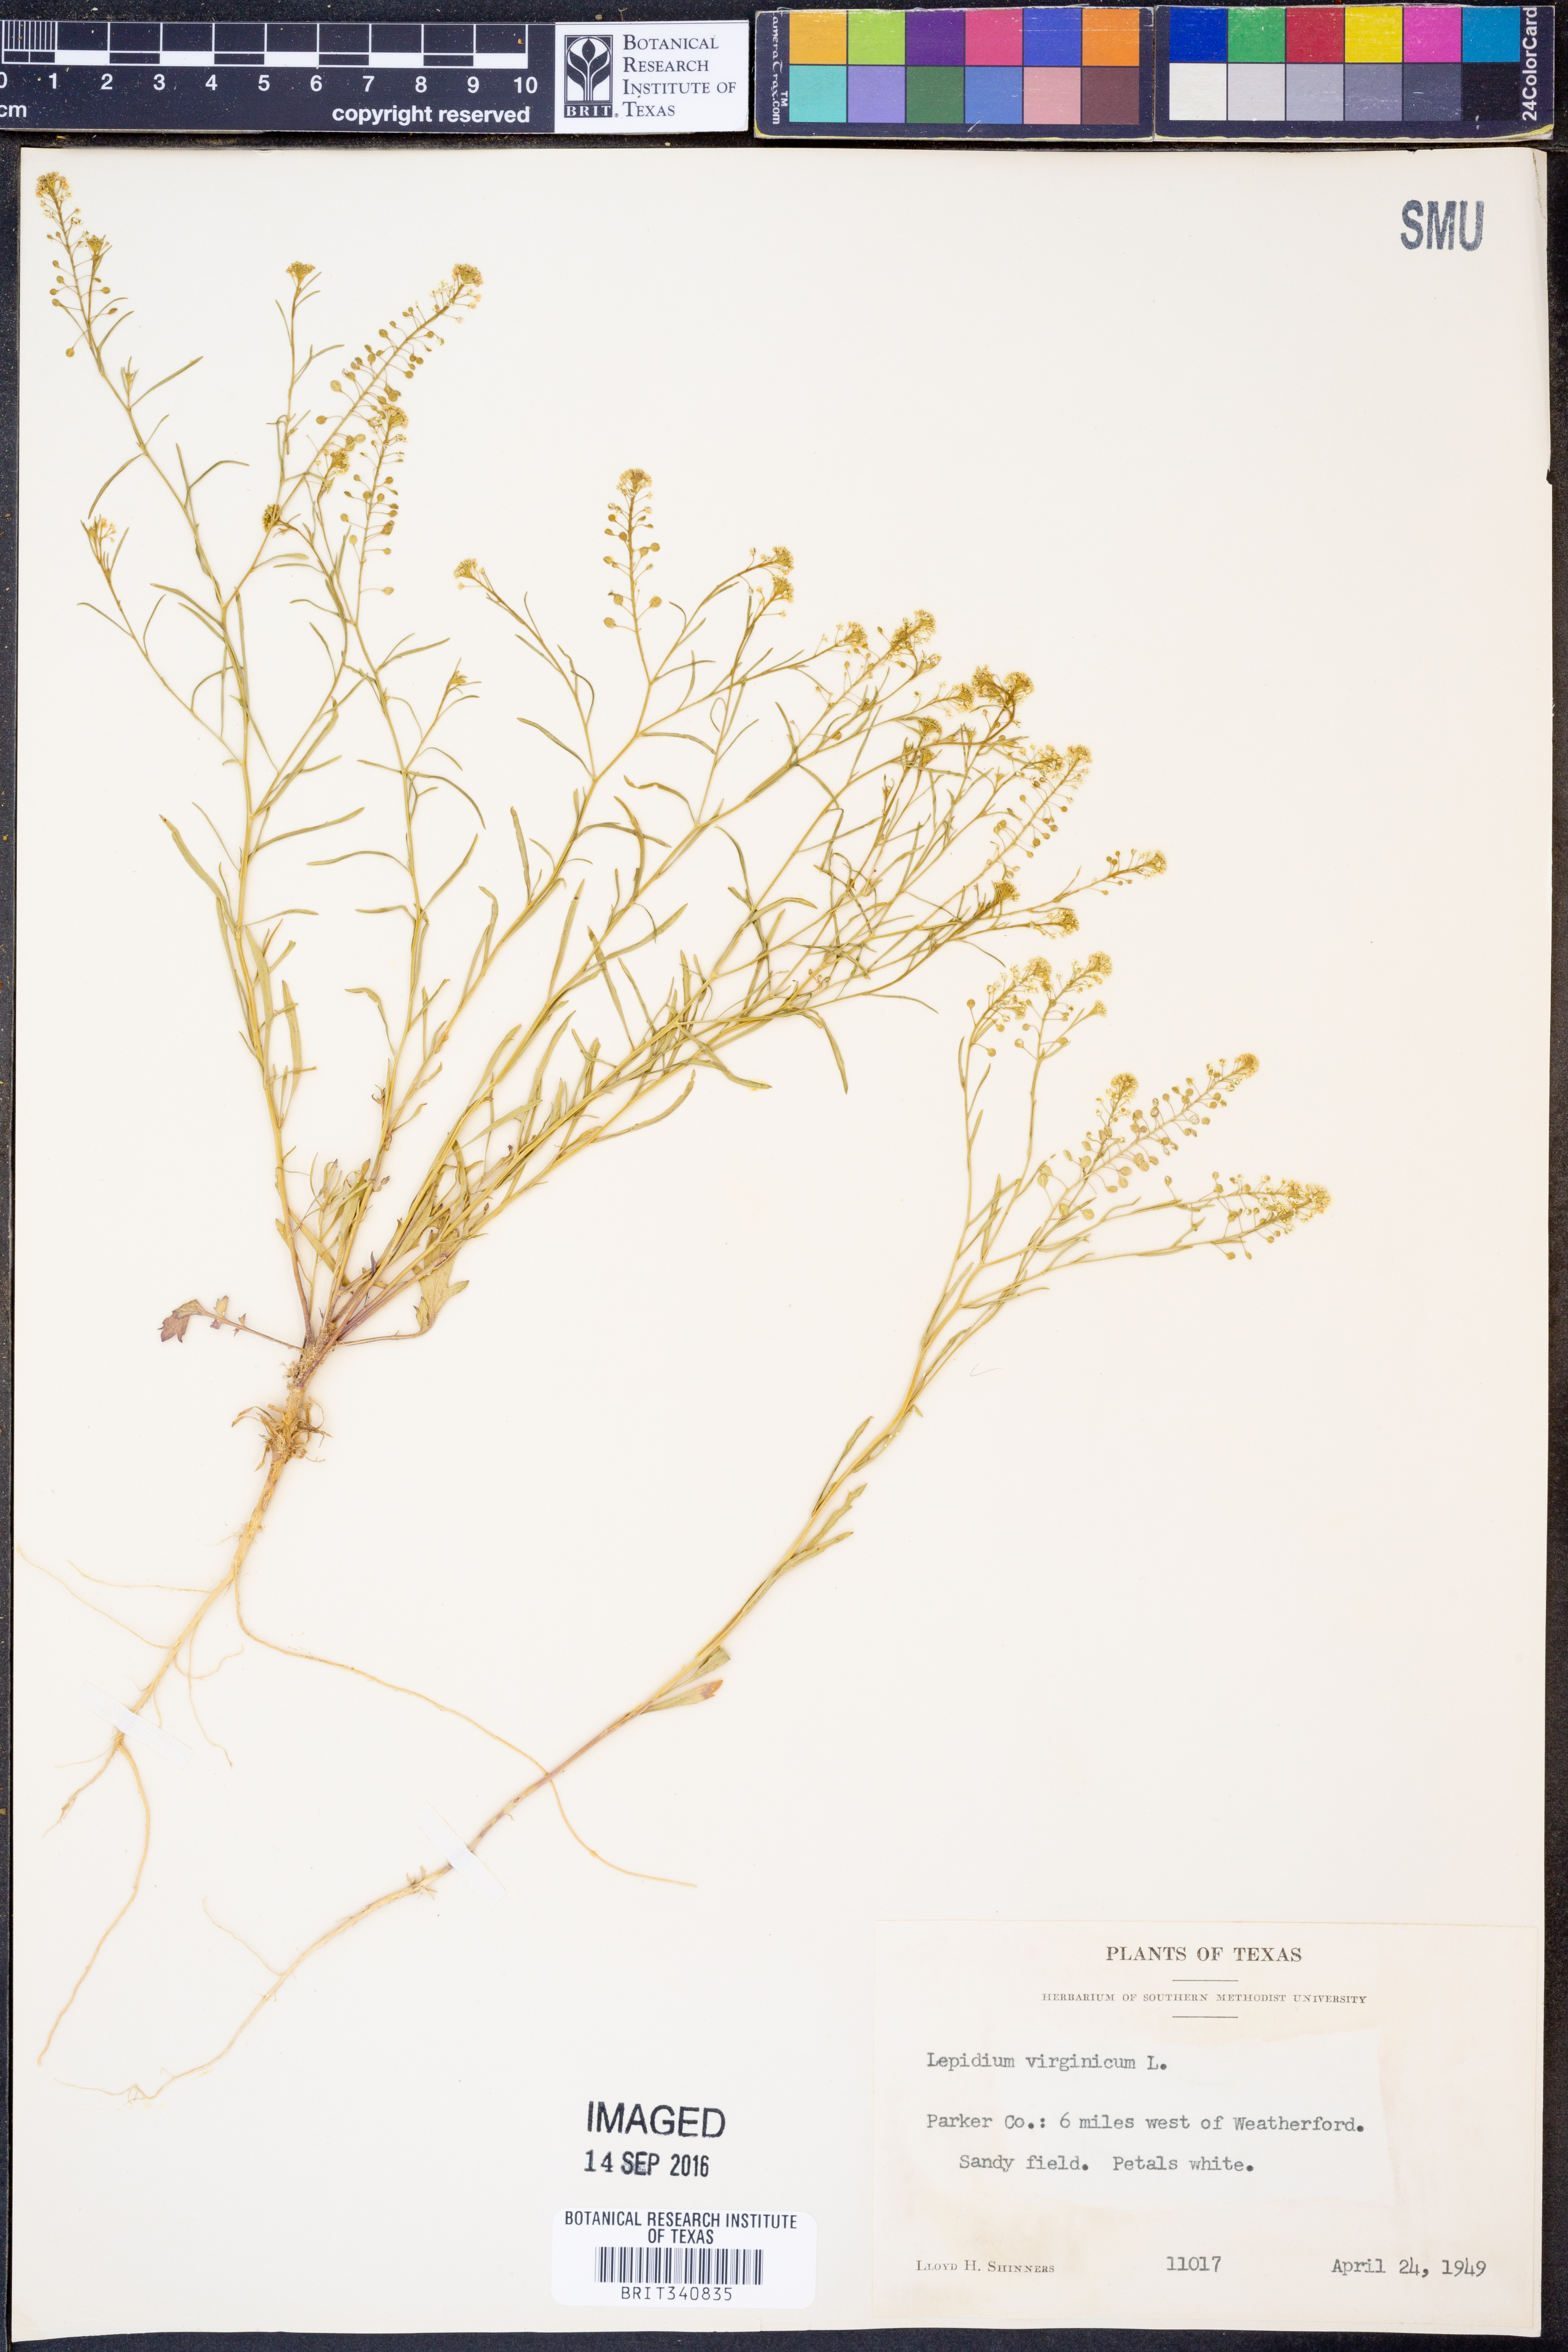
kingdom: Plantae
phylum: Tracheophyta
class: Magnoliopsida
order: Brassicales
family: Brassicaceae
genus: Lepidium
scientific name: Lepidium virginicum
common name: Least pepperwort
